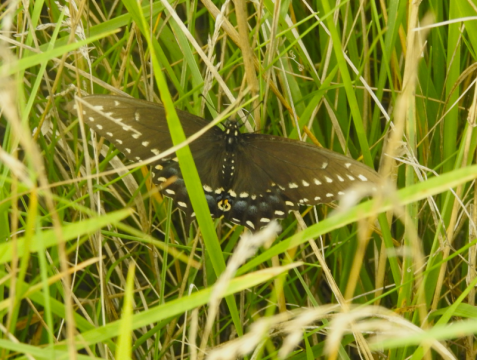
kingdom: Animalia
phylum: Arthropoda
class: Insecta
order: Lepidoptera
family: Papilionidae
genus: Papilio
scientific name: Papilio polyxenes
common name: Black Swallowtail
